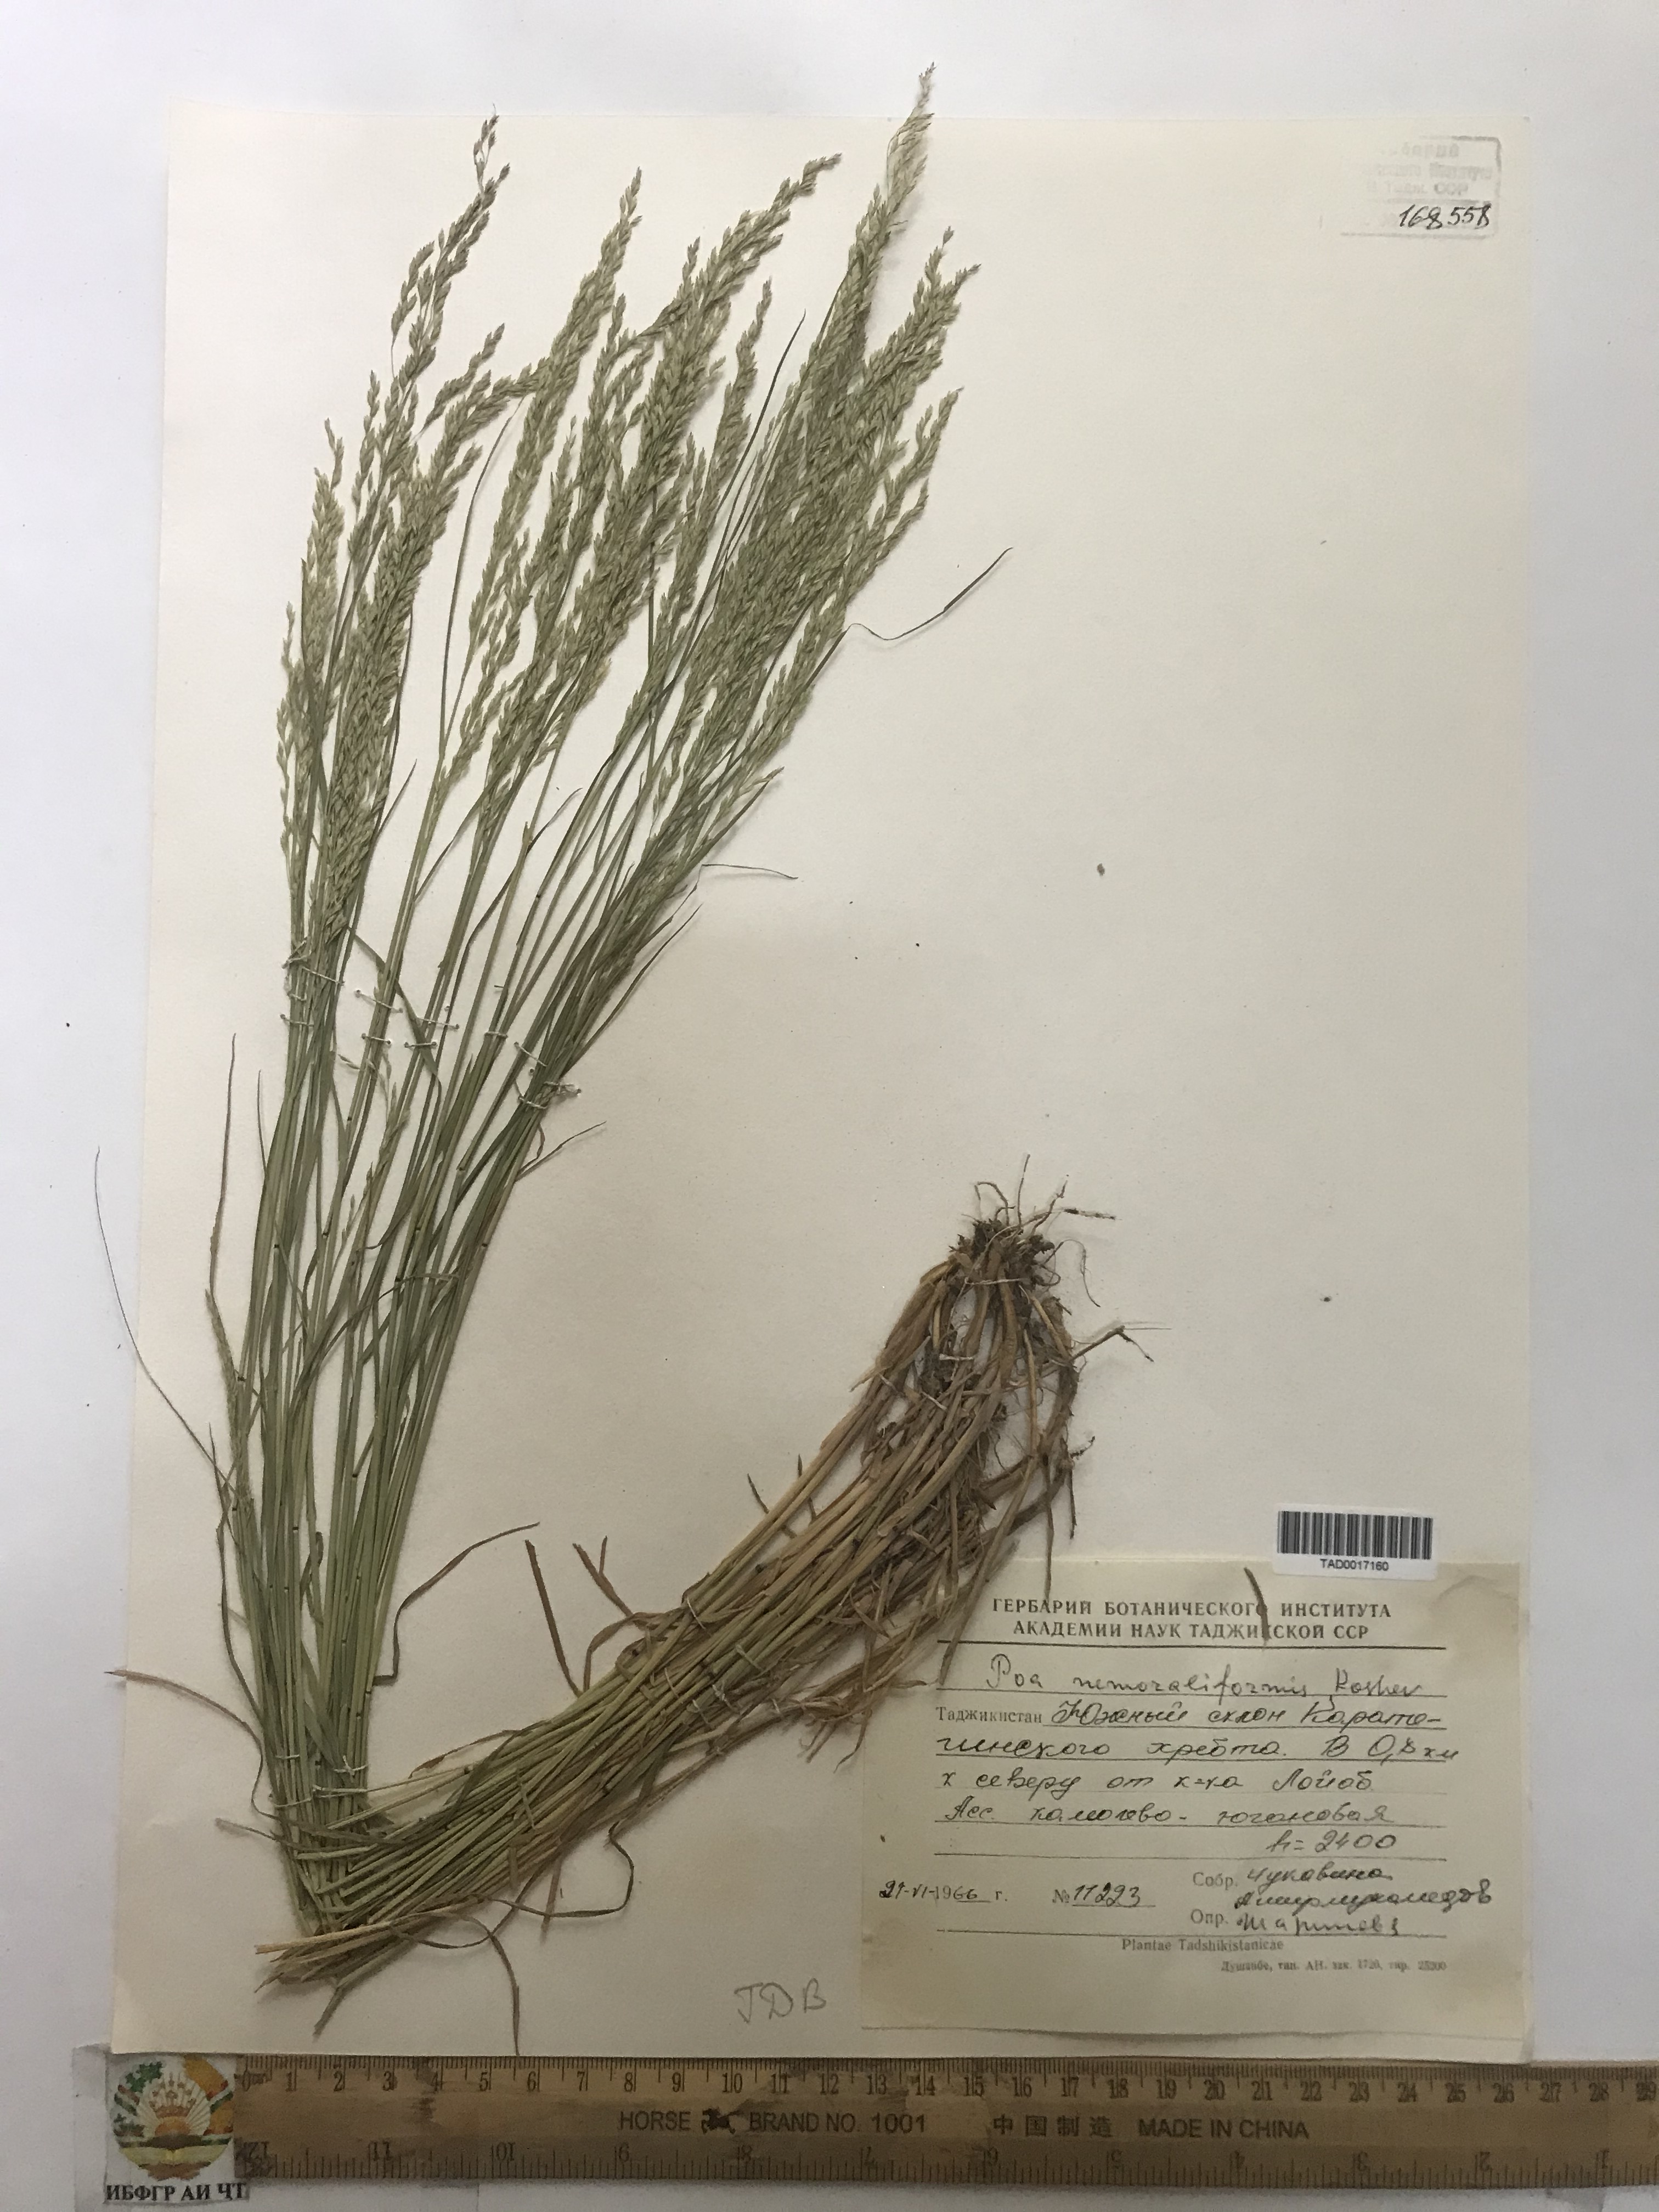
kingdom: Plantae
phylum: Tracheophyta
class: Liliopsida
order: Poales
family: Poaceae
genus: Poa
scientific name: Poa urssulensis
